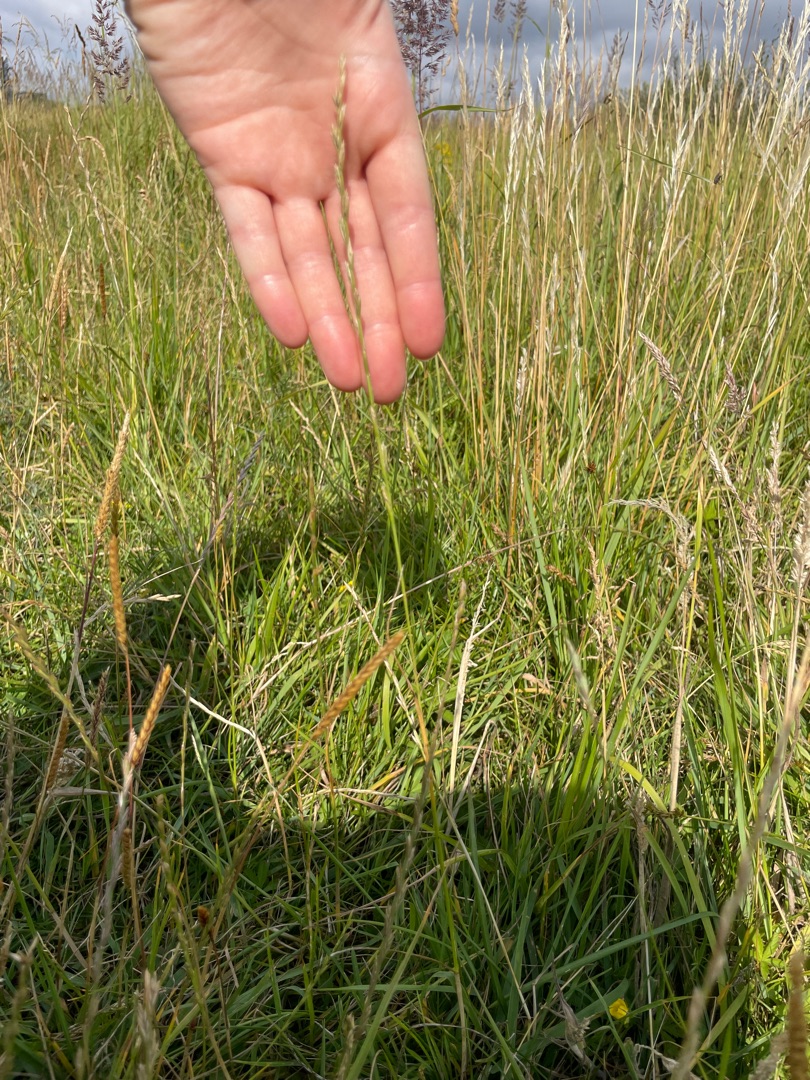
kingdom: Plantae
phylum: Tracheophyta
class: Liliopsida
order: Poales
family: Poaceae
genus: Lolium
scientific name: Lolium perenne
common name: Almindelig rajgræs
